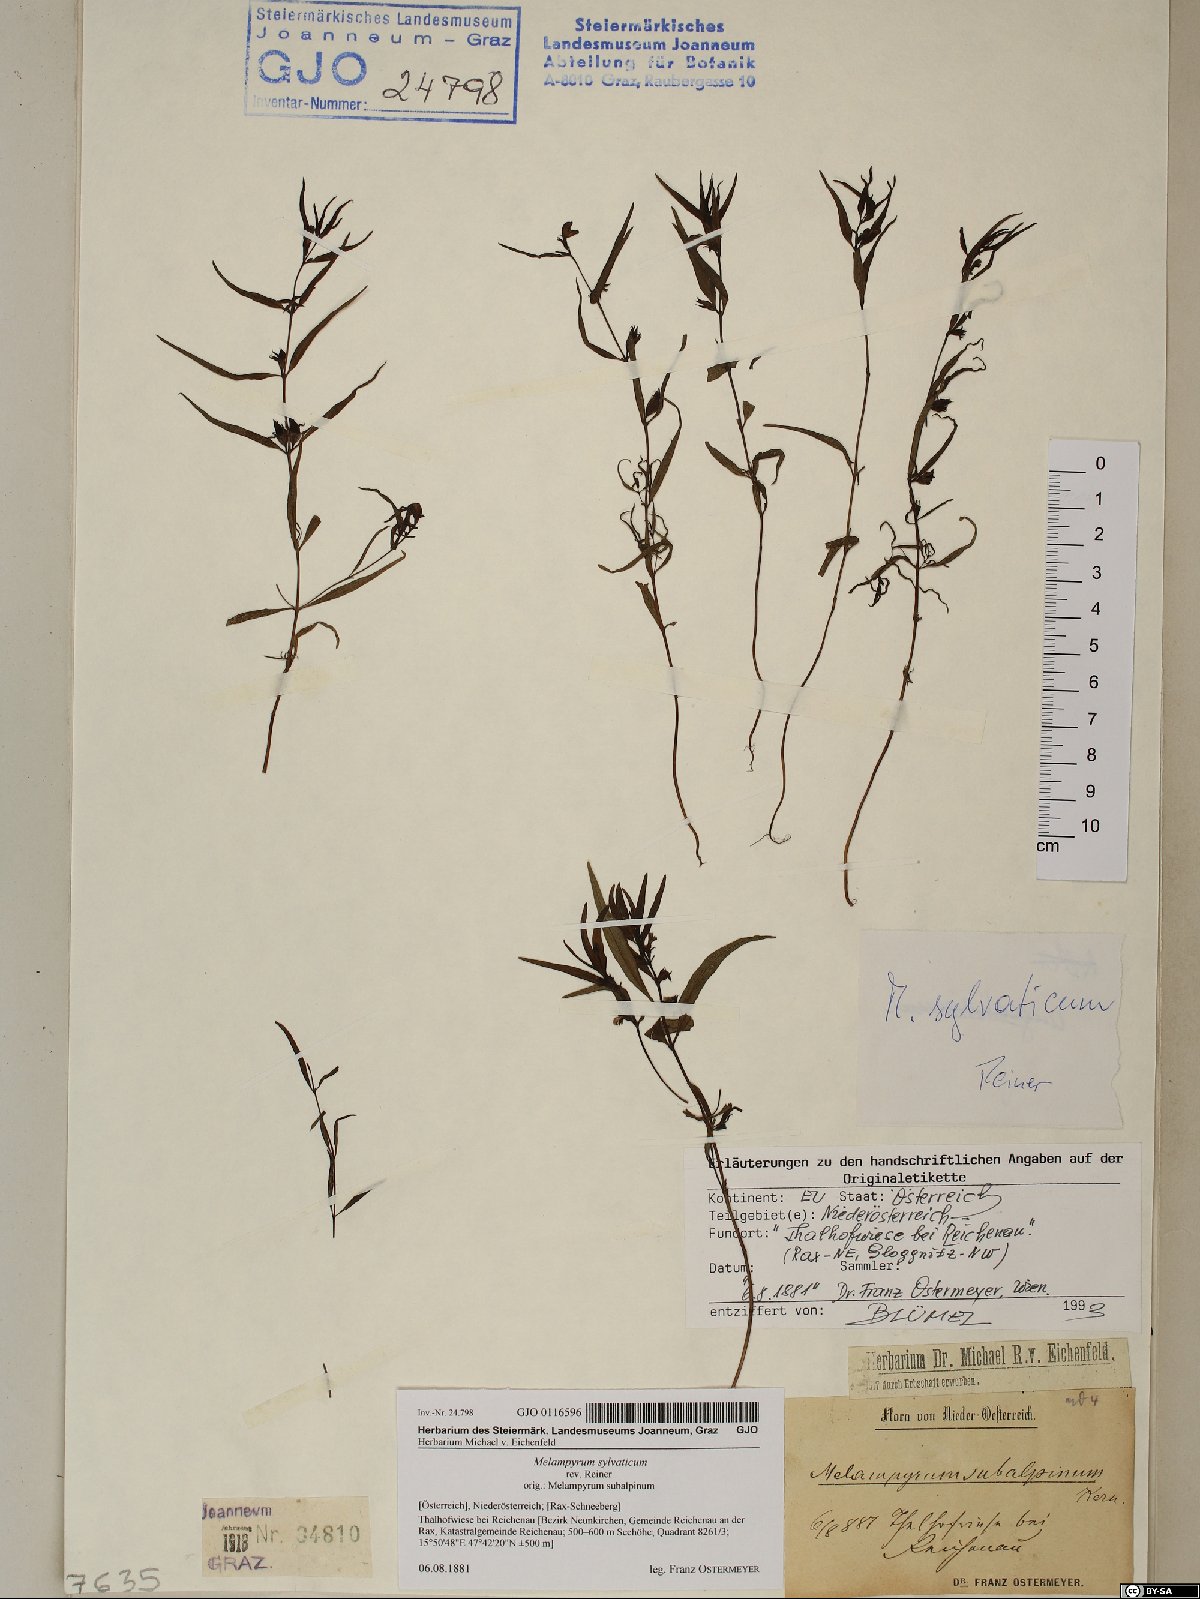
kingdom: Plantae
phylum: Tracheophyta
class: Magnoliopsida
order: Lamiales
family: Orobanchaceae
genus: Melampyrum
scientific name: Melampyrum sylvaticum
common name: Small cow-wheat
